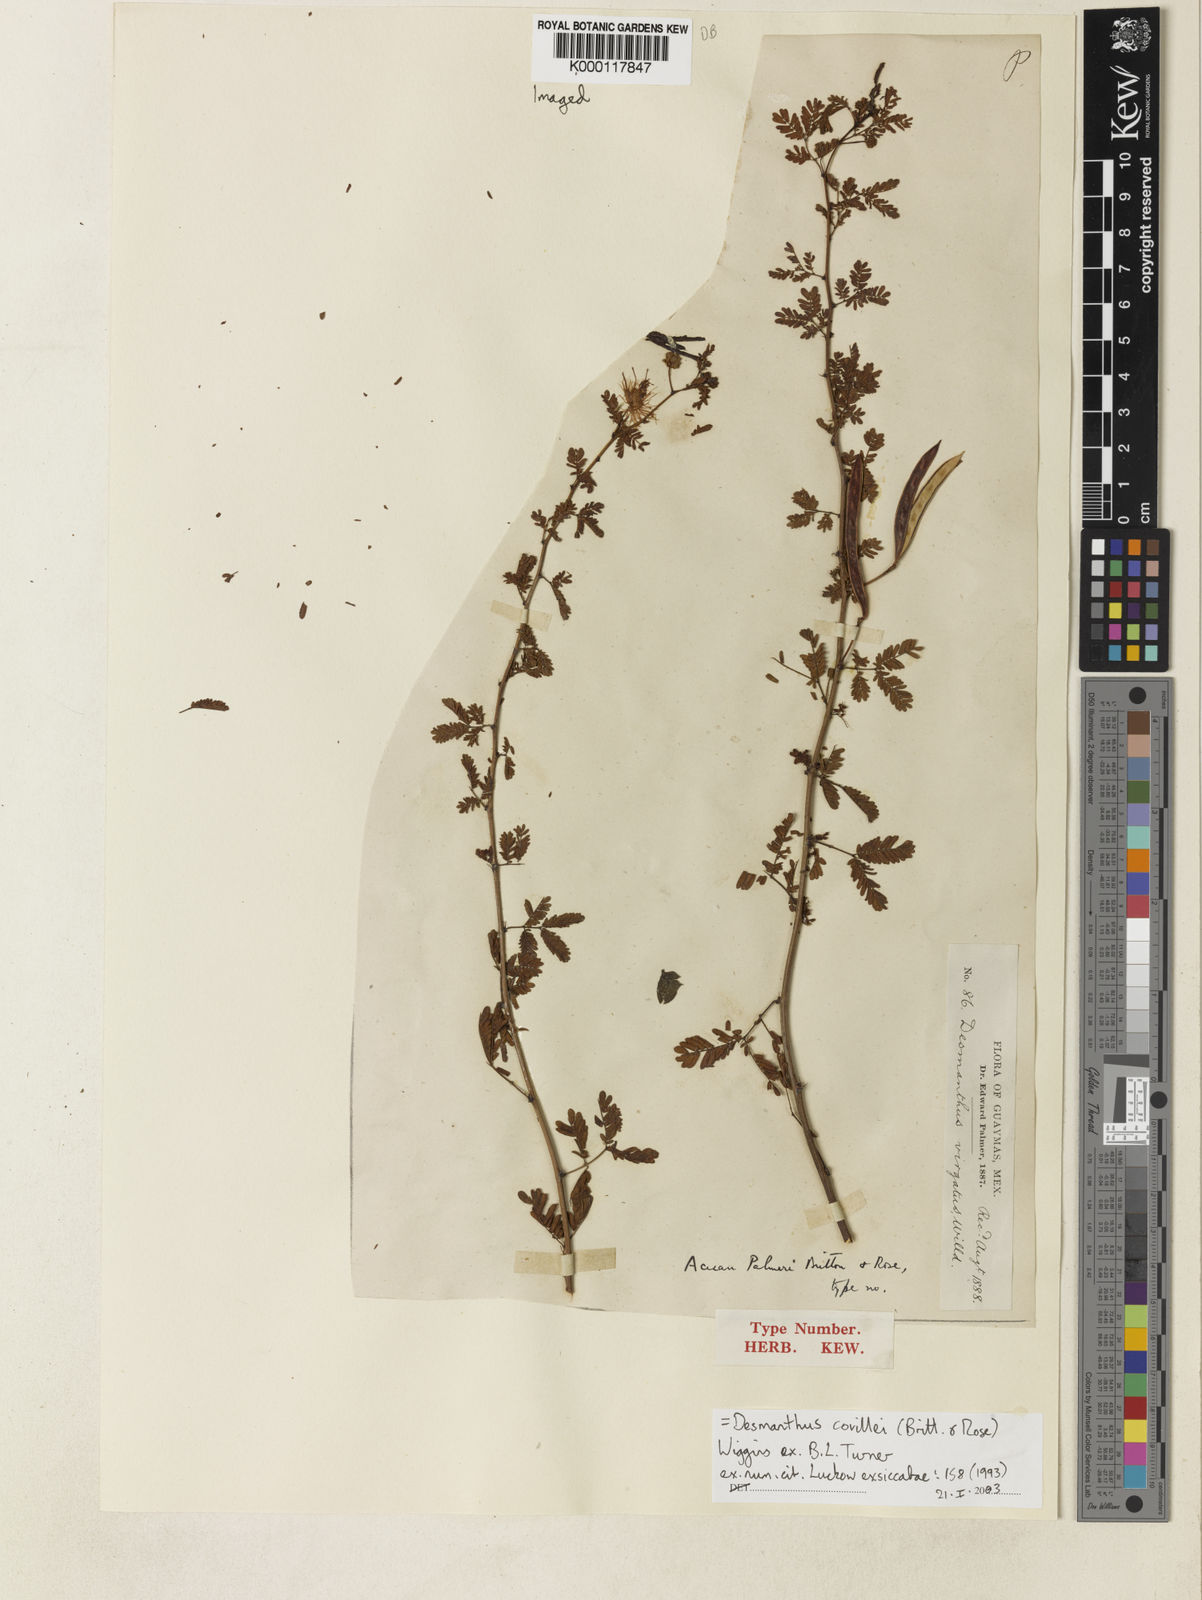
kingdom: Plantae
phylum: Tracheophyta
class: Magnoliopsida
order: Fabales
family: Fabaceae
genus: Desmanthus
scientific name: Desmanthus covillei
